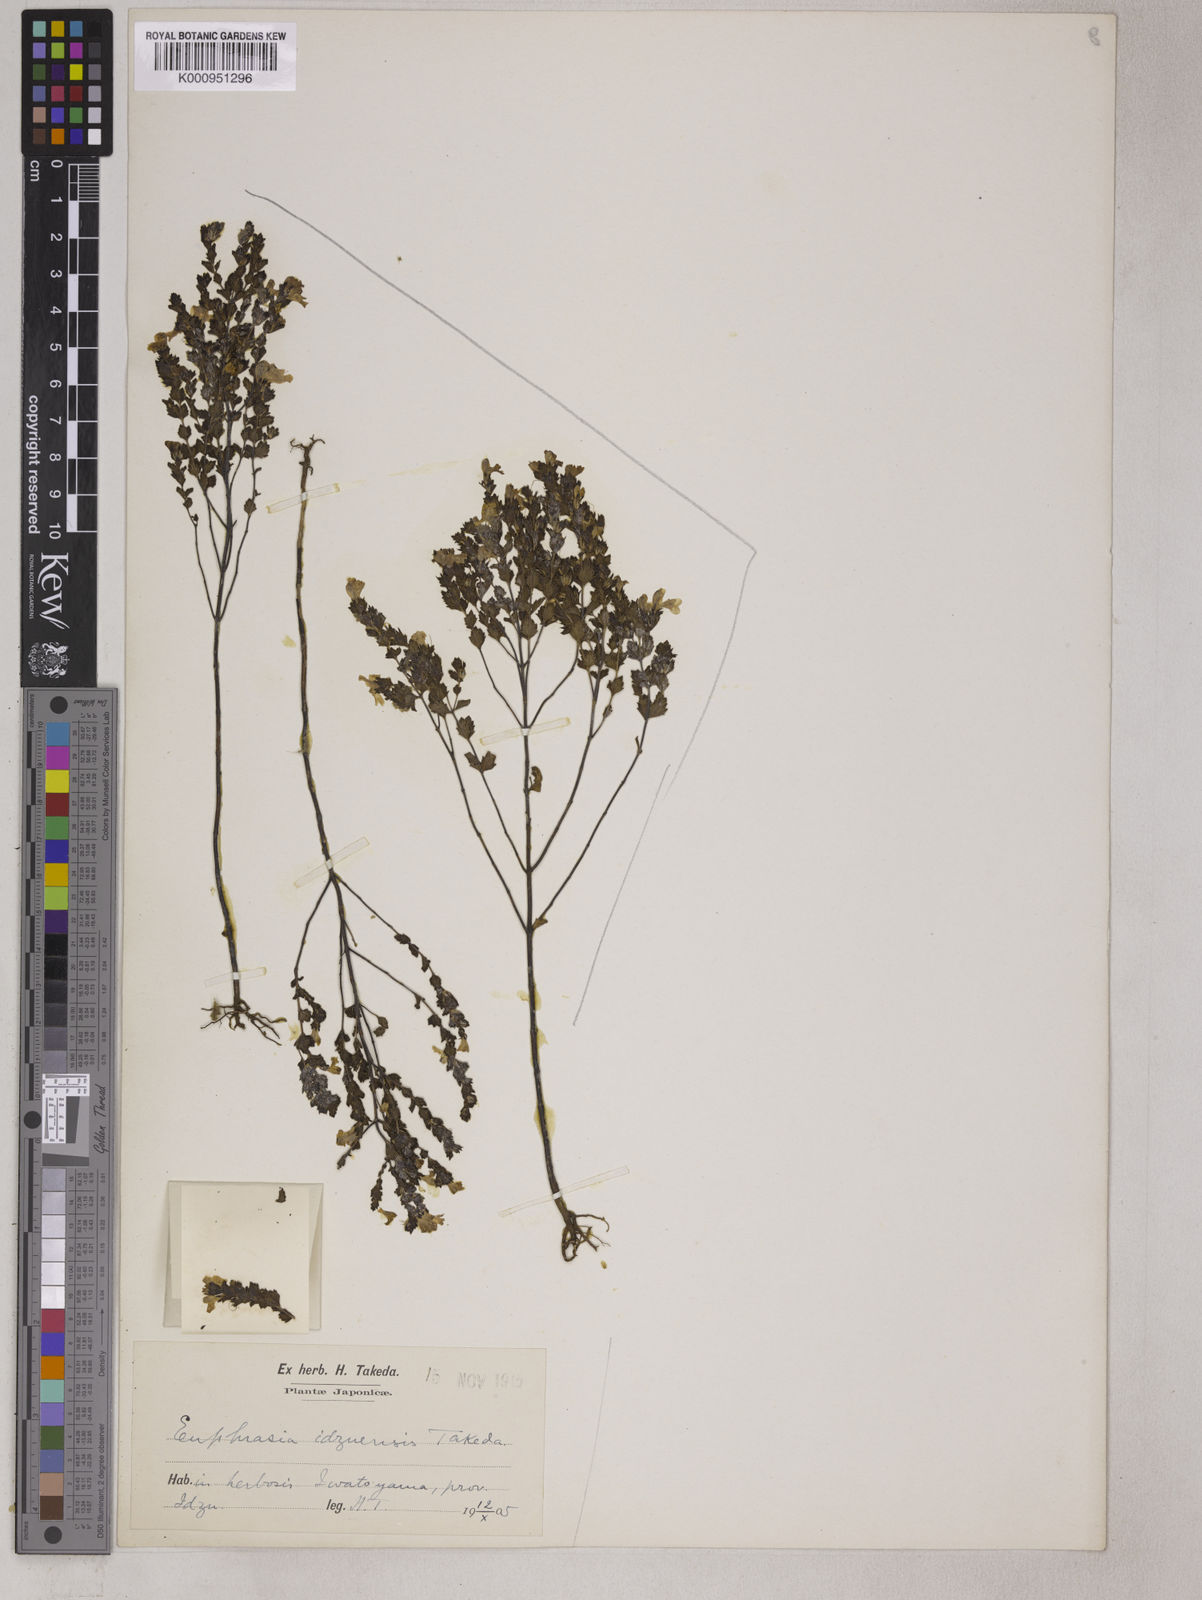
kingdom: Plantae
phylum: Tracheophyta
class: Magnoliopsida
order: Lamiales
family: Orobanchaceae
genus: Euphrasia
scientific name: Euphrasia insignis
